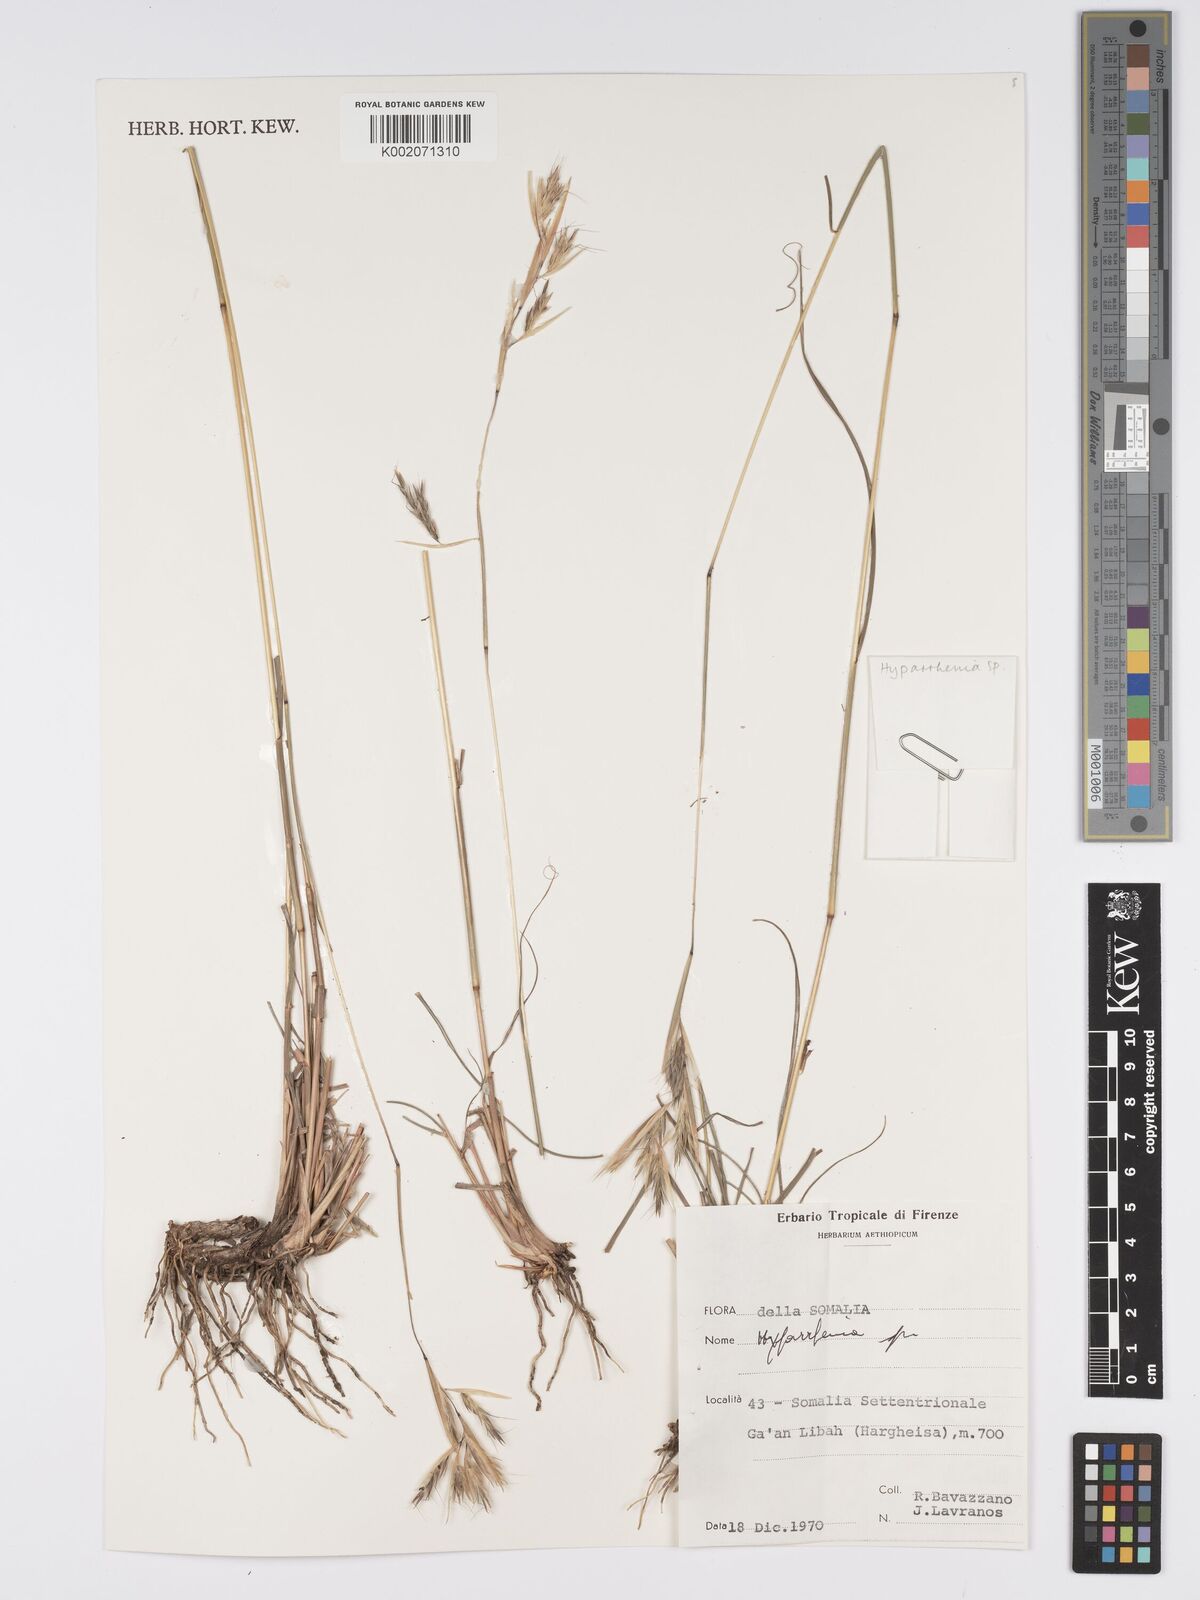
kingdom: Plantae
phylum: Tracheophyta
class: Liliopsida
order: Poales
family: Poaceae
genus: Hyparrhenia
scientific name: Hyparrhenia
